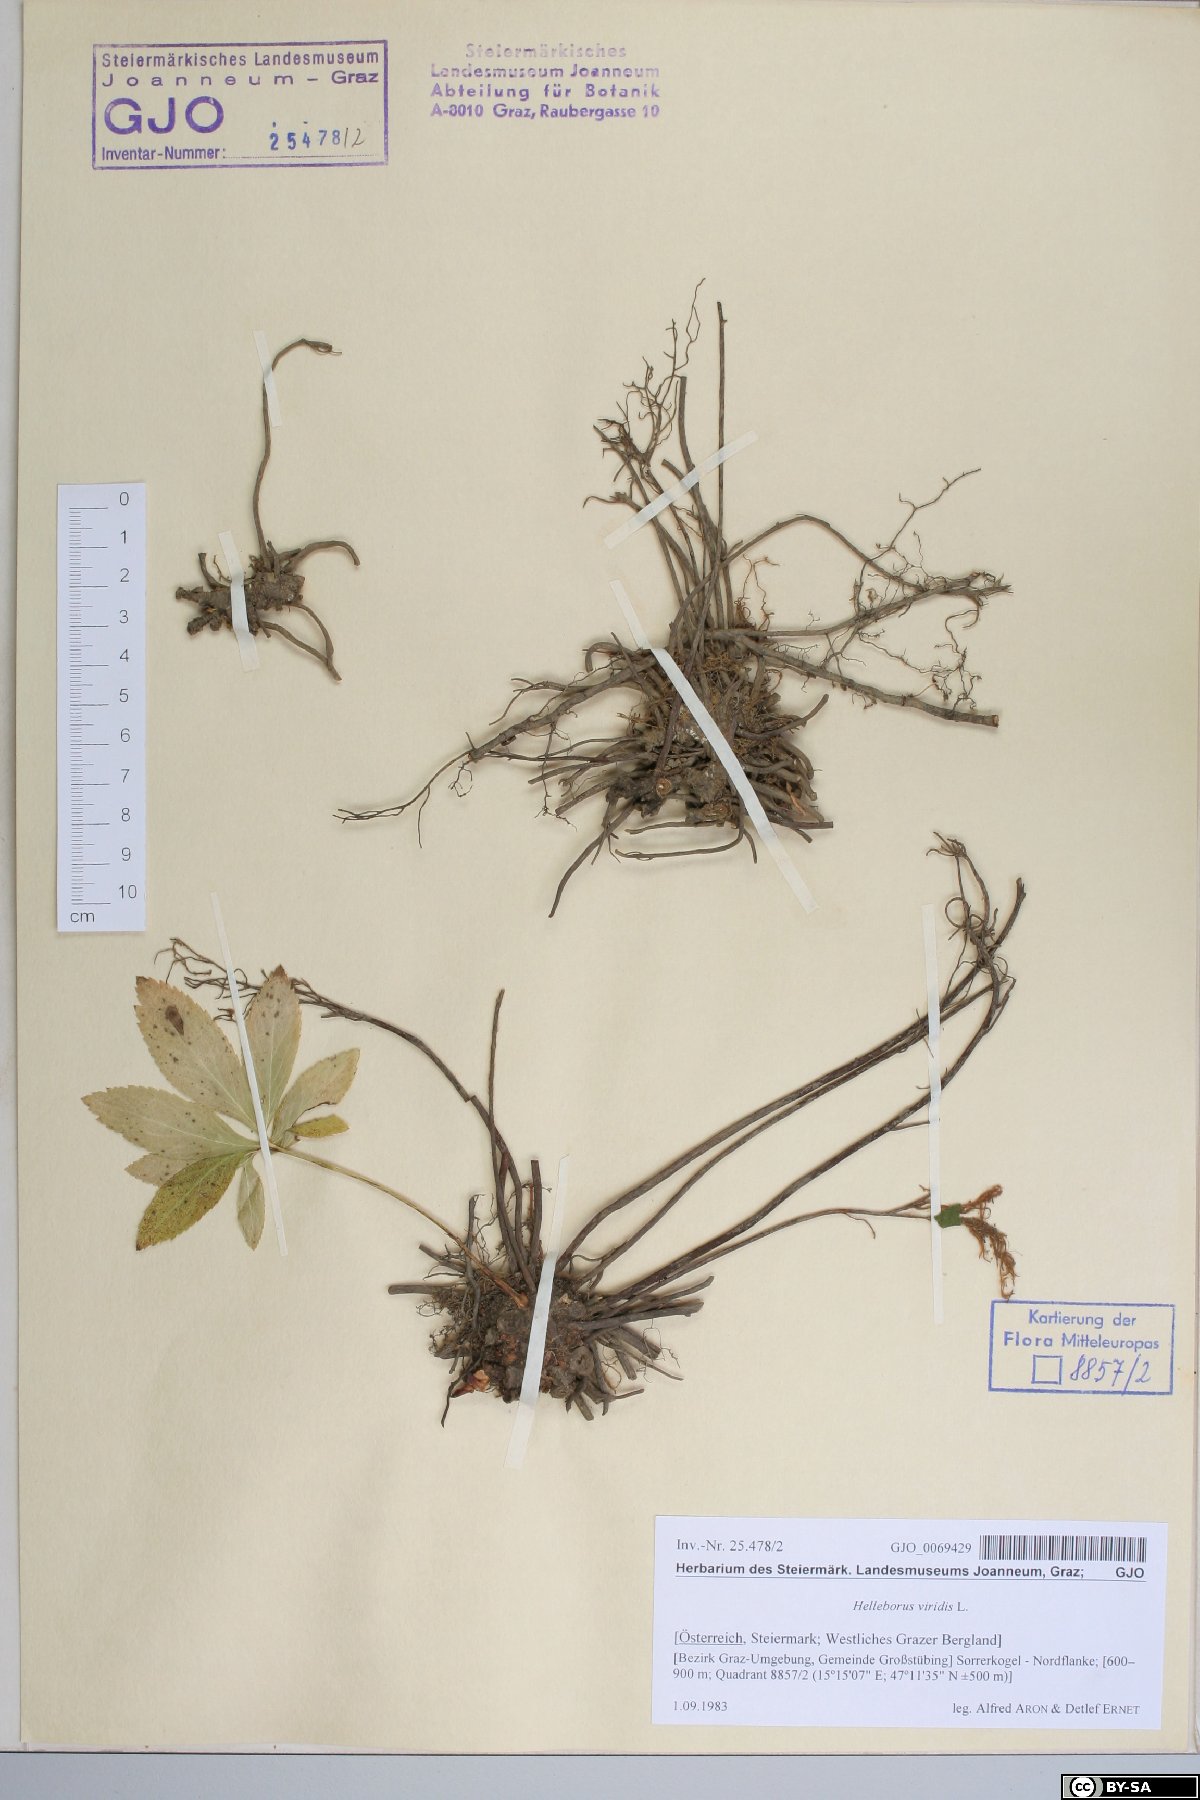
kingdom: Plantae
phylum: Tracheophyta
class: Magnoliopsida
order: Ranunculales
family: Ranunculaceae
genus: Helleborus
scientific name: Helleborus viridis
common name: Green hellebore
